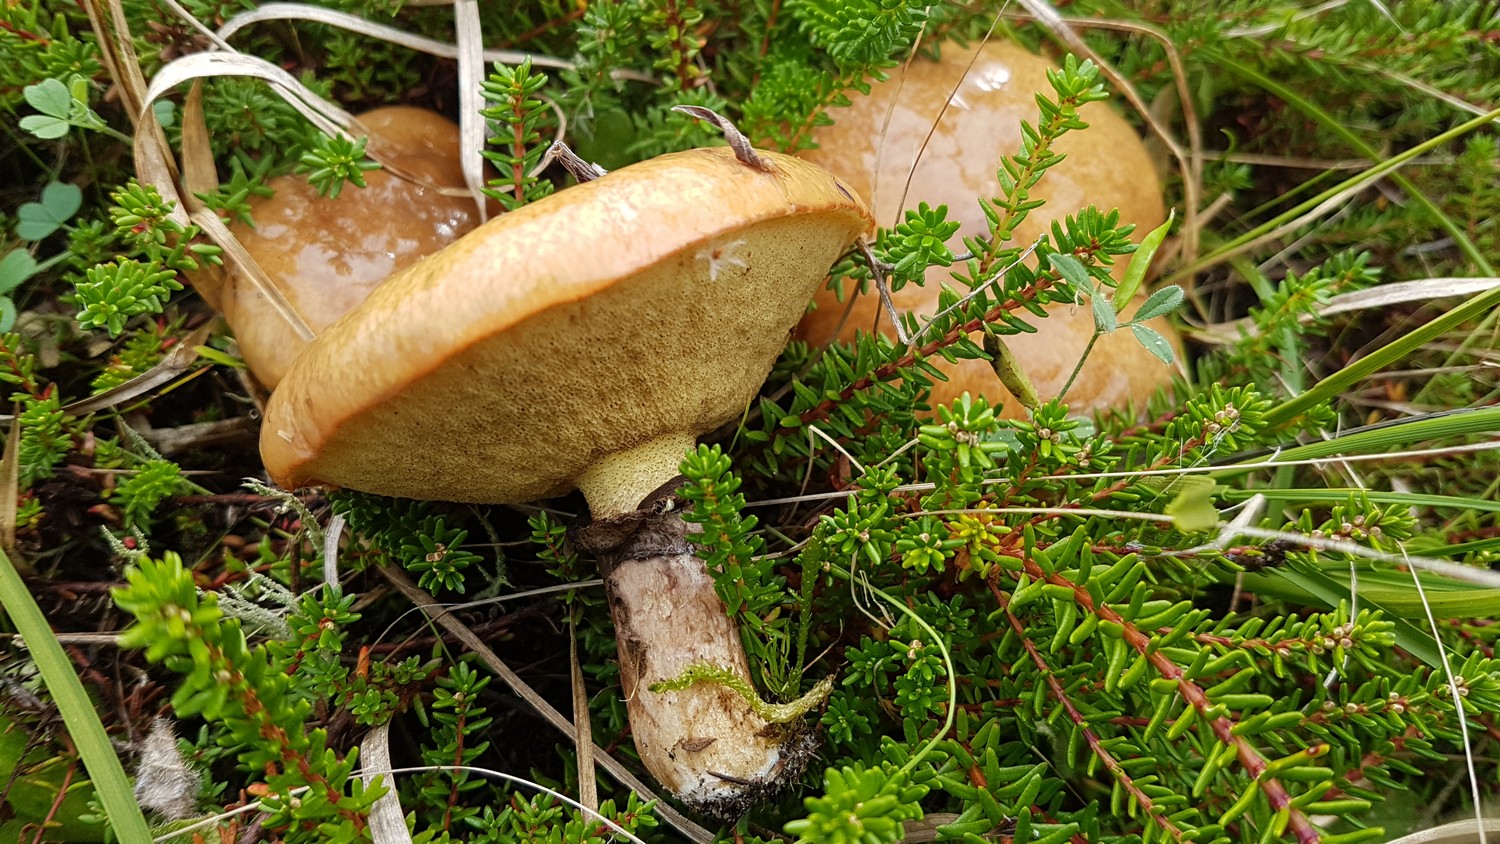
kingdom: Fungi
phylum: Basidiomycota
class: Agaricomycetes
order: Boletales
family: Suillaceae
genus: Suillus
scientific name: Suillus luteus
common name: brungul slimrørhat
